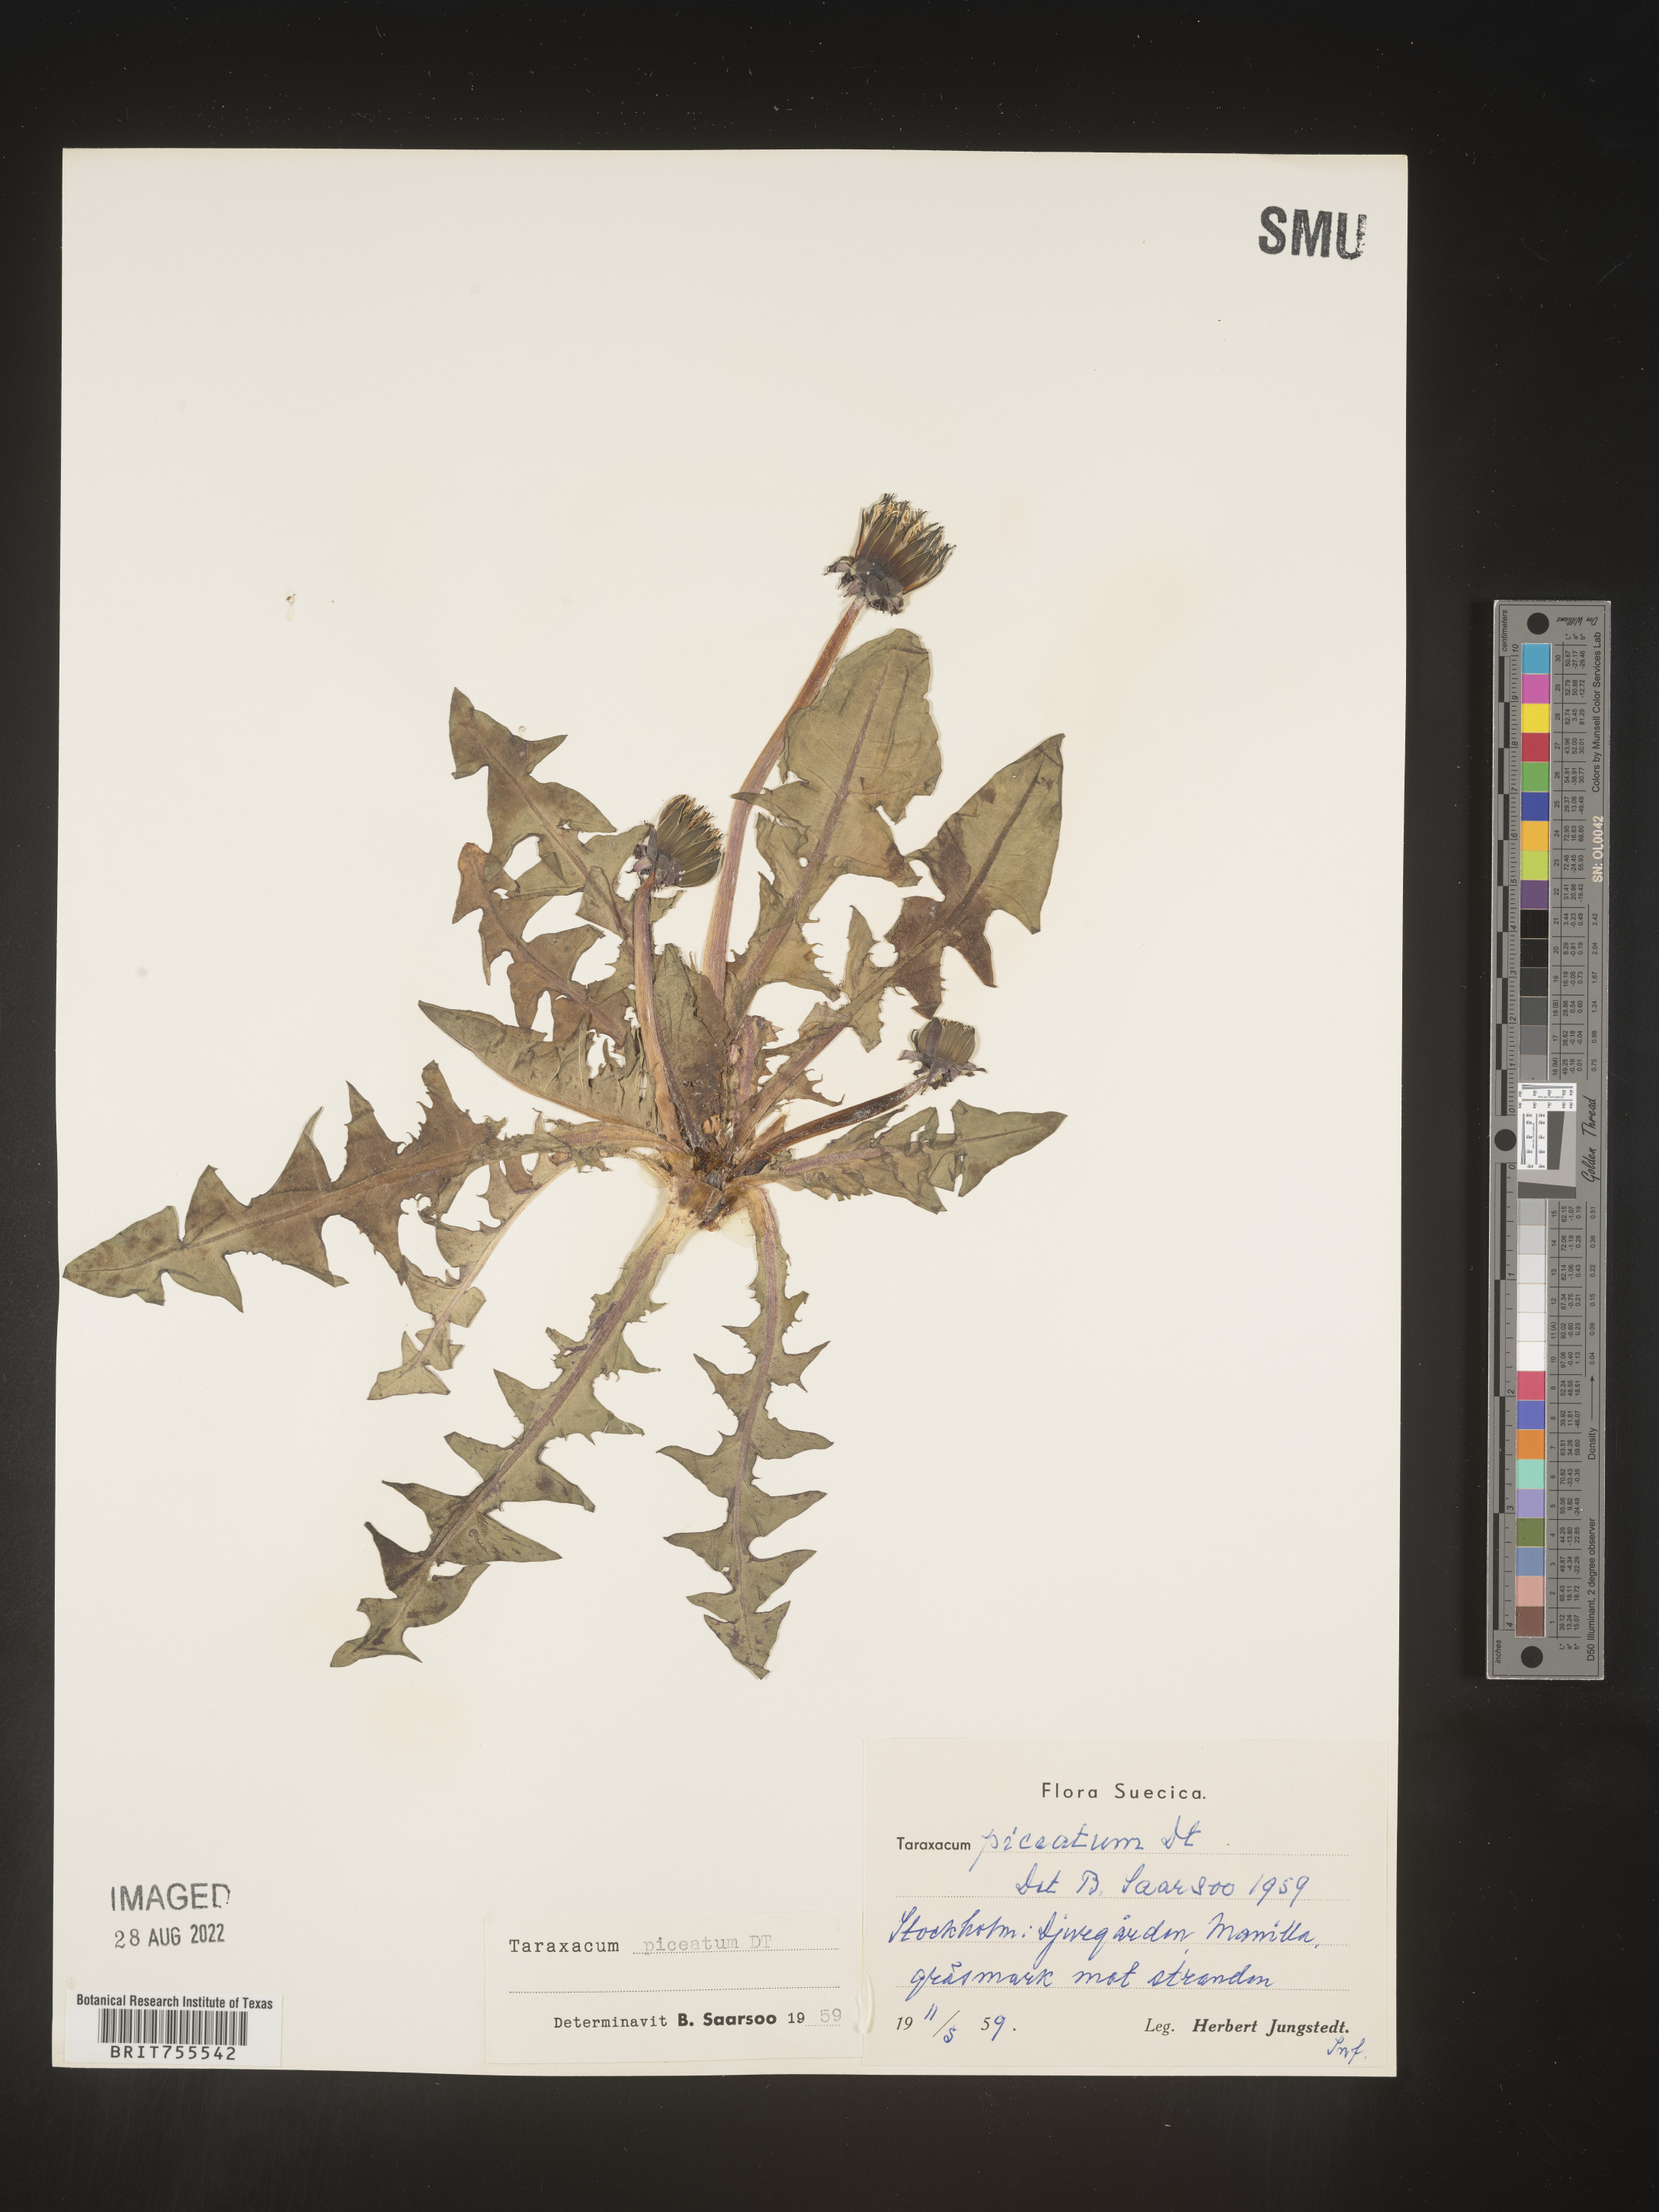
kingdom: Plantae
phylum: Tracheophyta
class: Magnoliopsida
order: Asterales
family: Asteraceae
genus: Taraxacum
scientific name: Taraxacum
